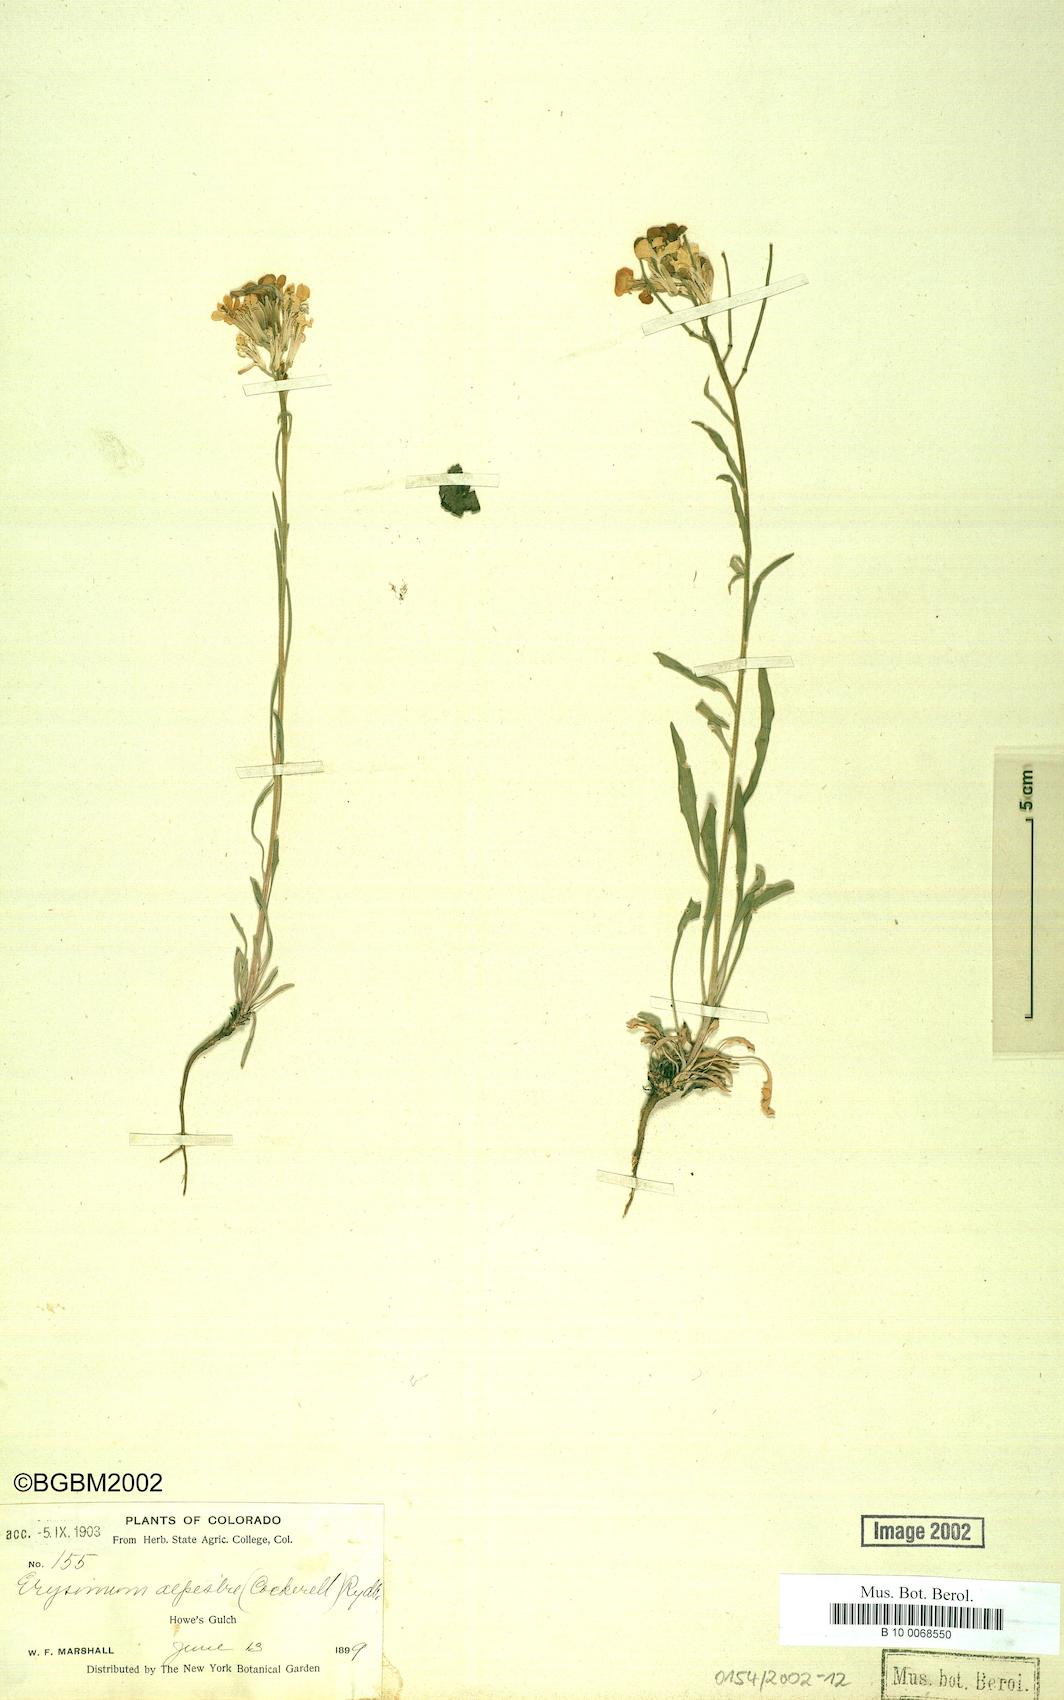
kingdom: Plantae
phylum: Tracheophyta
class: Magnoliopsida
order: Brassicales
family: Brassicaceae
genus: Erysimum
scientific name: Erysimum capitatum
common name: Western wallflower
